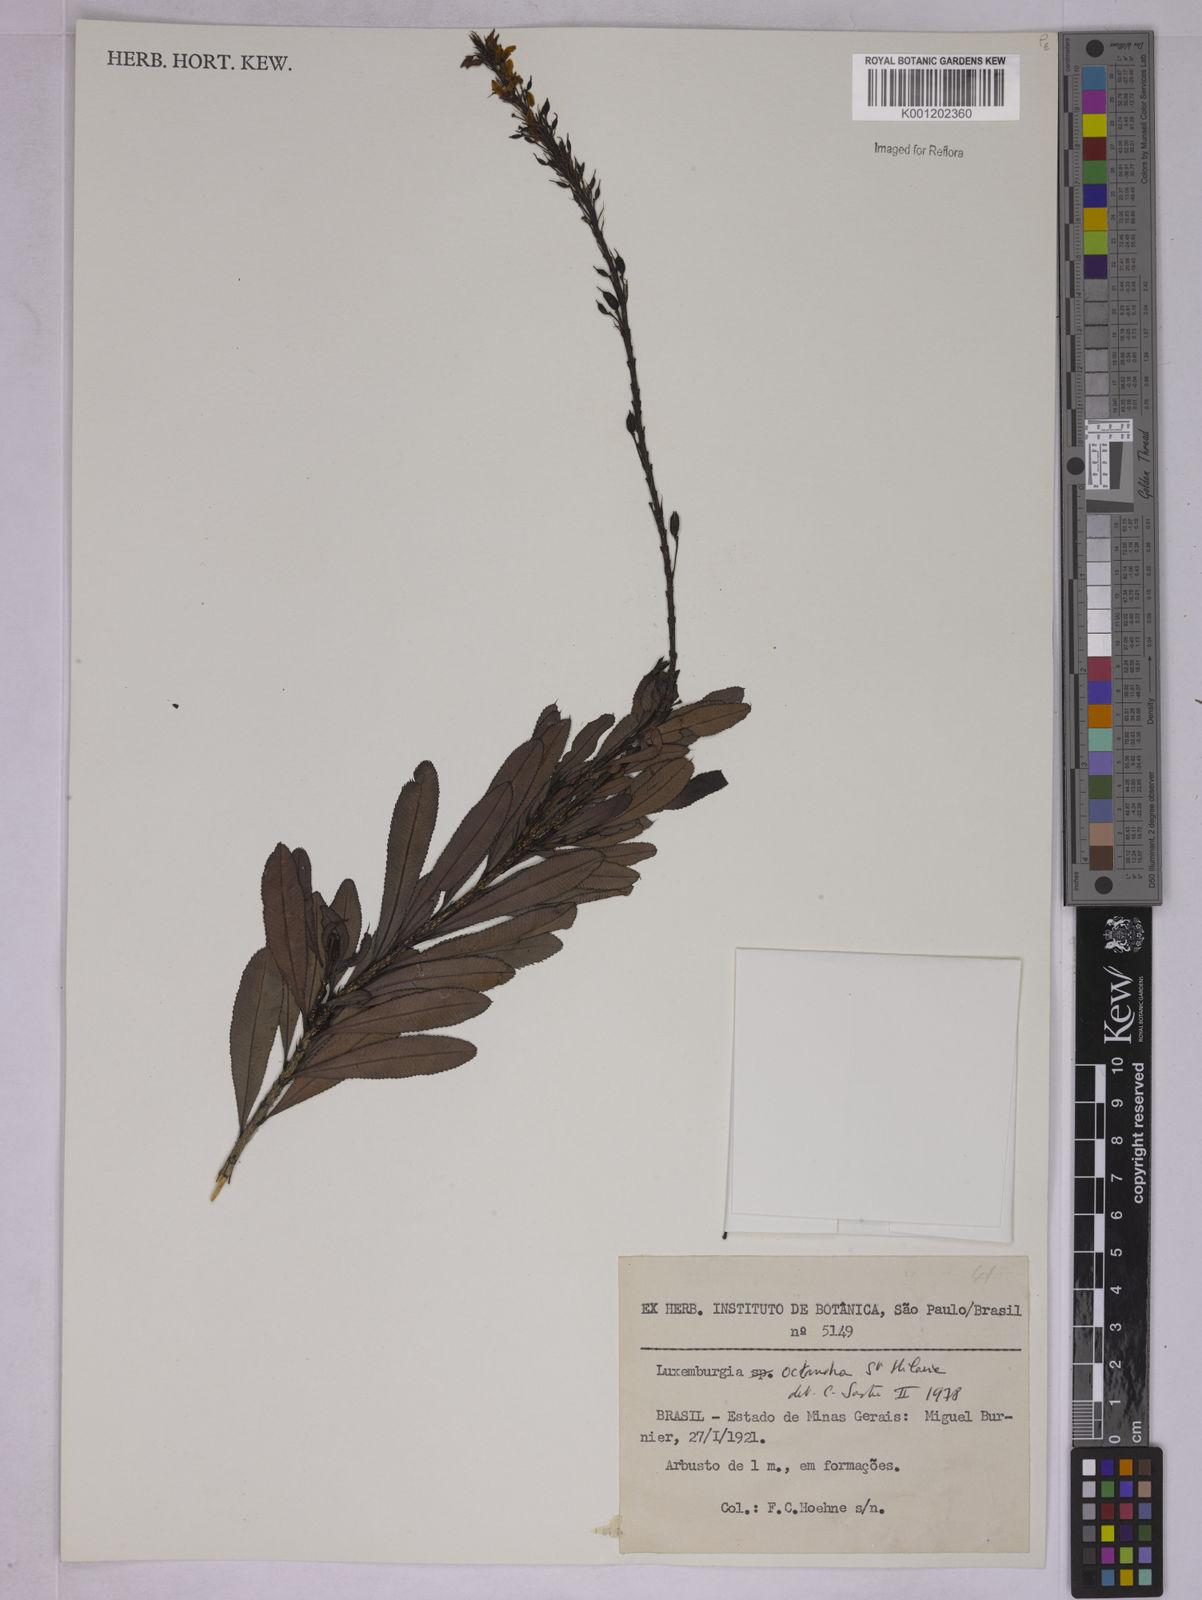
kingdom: Plantae
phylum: Tracheophyta
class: Magnoliopsida
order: Malpighiales
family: Ochnaceae
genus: Luxemburgia
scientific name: Luxemburgia octandra
